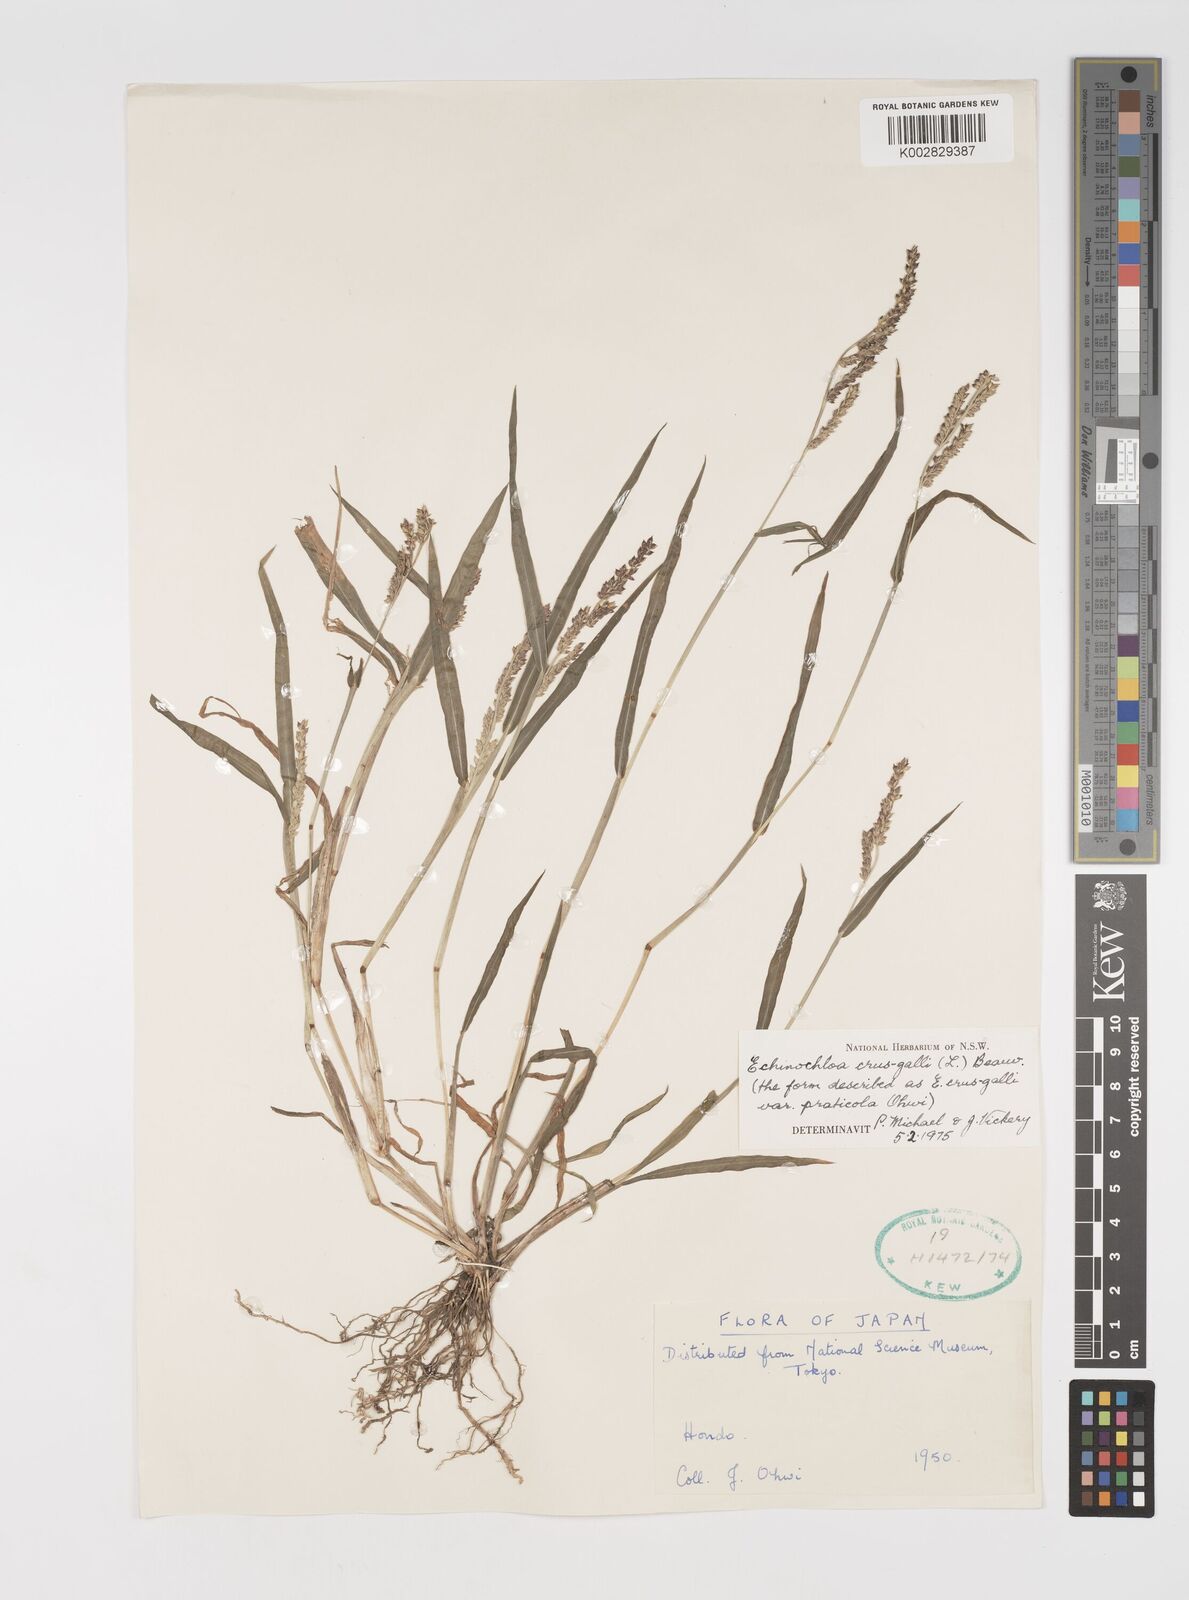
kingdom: Plantae
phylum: Tracheophyta
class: Liliopsida
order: Poales
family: Poaceae
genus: Echinochloa
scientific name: Echinochloa crus-galli
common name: Cockspur
